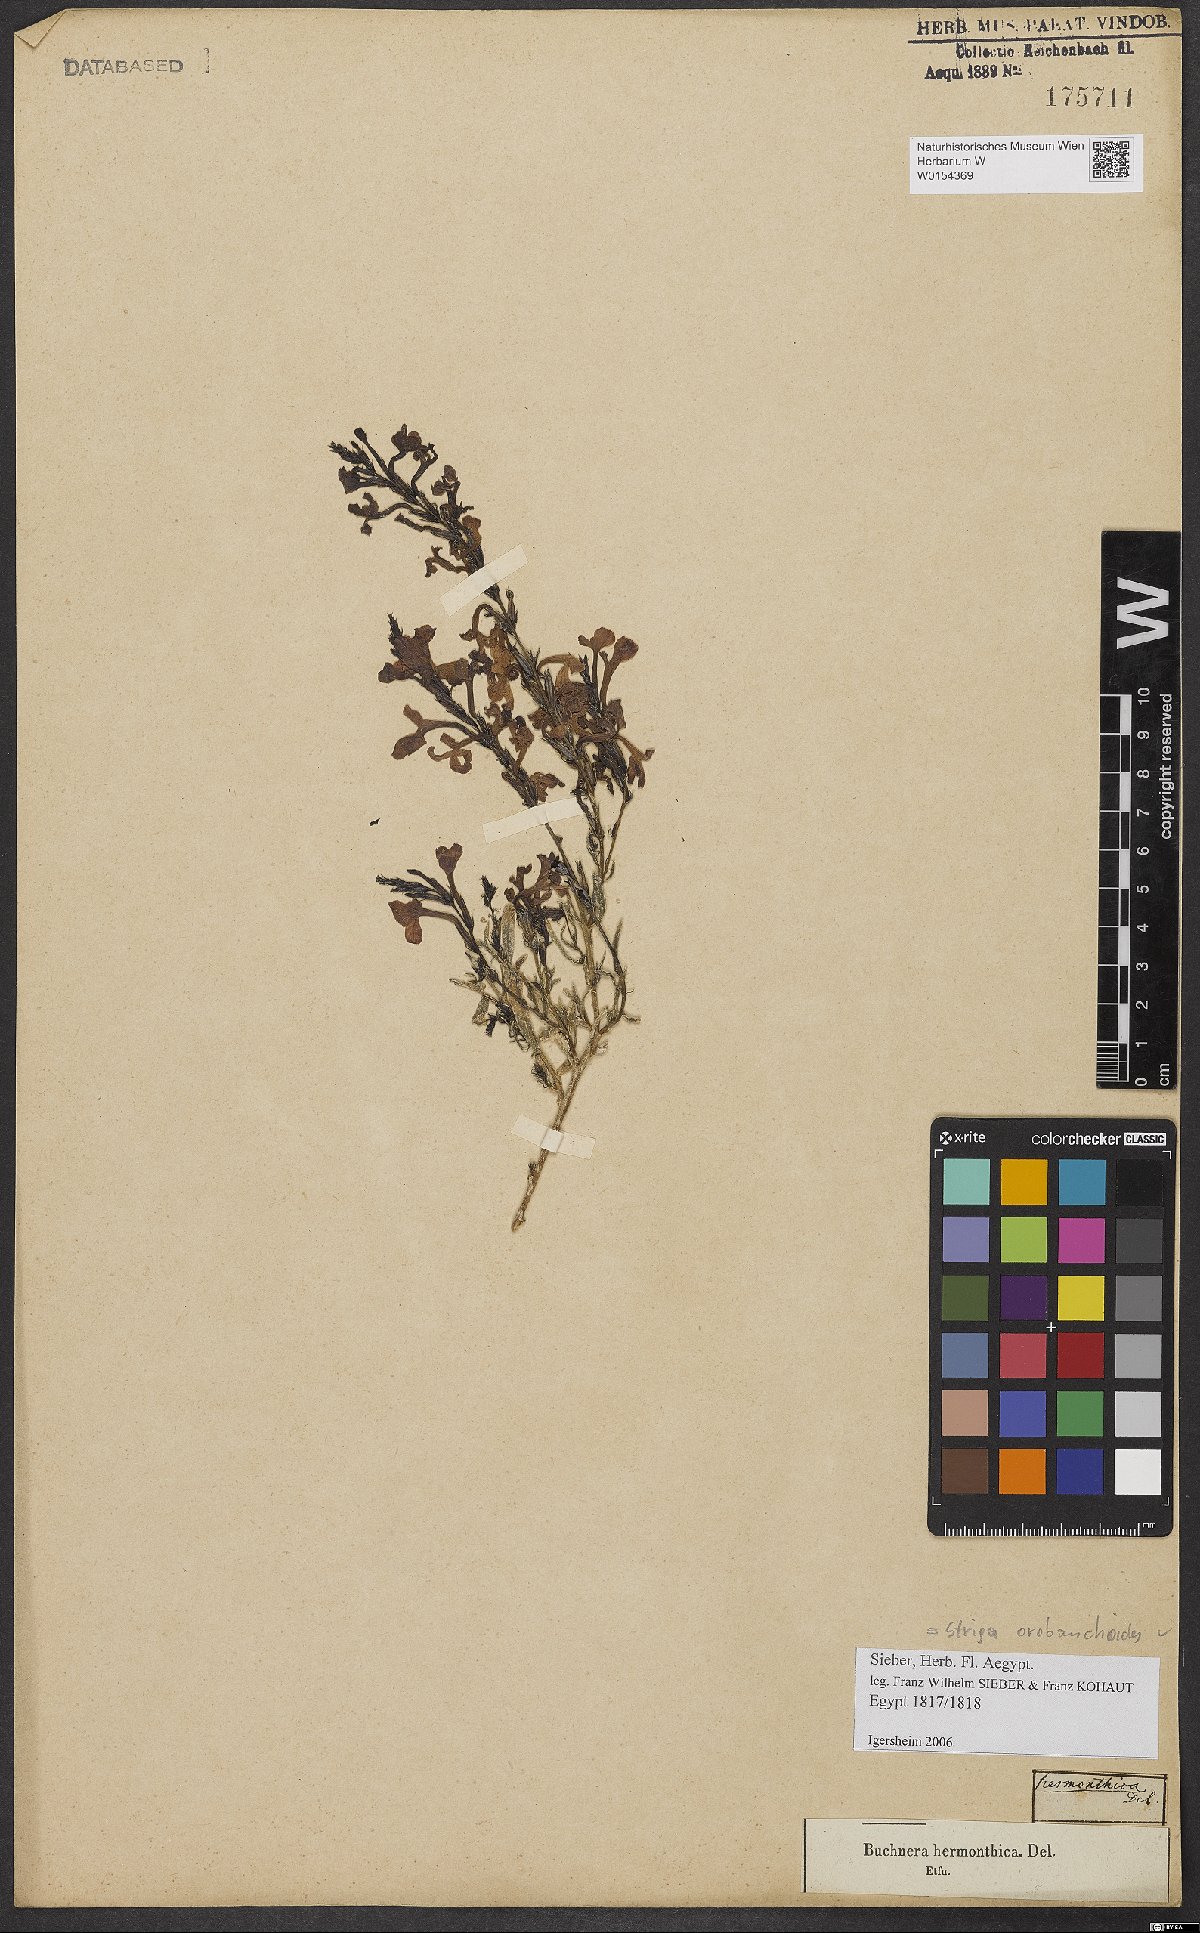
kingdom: Plantae
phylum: Tracheophyta
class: Magnoliopsida
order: Lamiales
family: Orobanchaceae
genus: Striga
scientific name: Striga barthlottii
